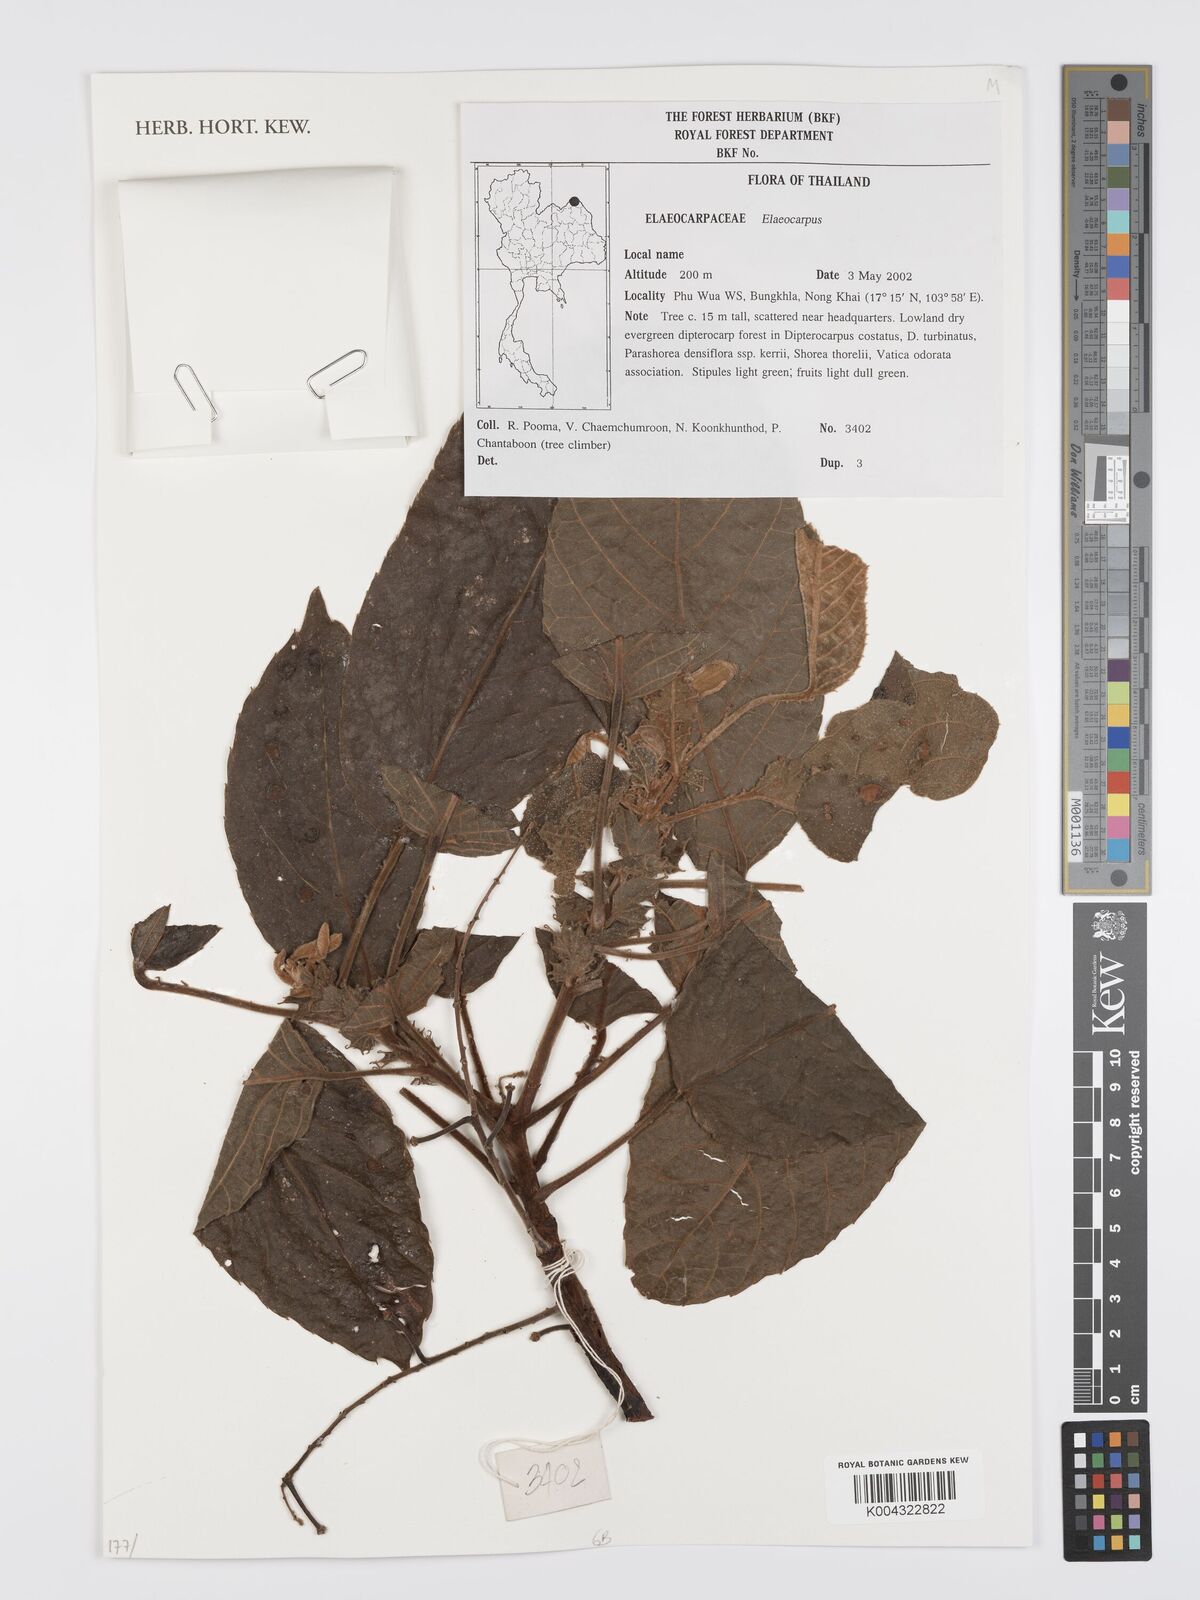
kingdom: Plantae
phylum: Tracheophyta
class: Magnoliopsida
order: Oxalidales
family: Elaeocarpaceae
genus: Elaeocarpus
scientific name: Elaeocarpus
